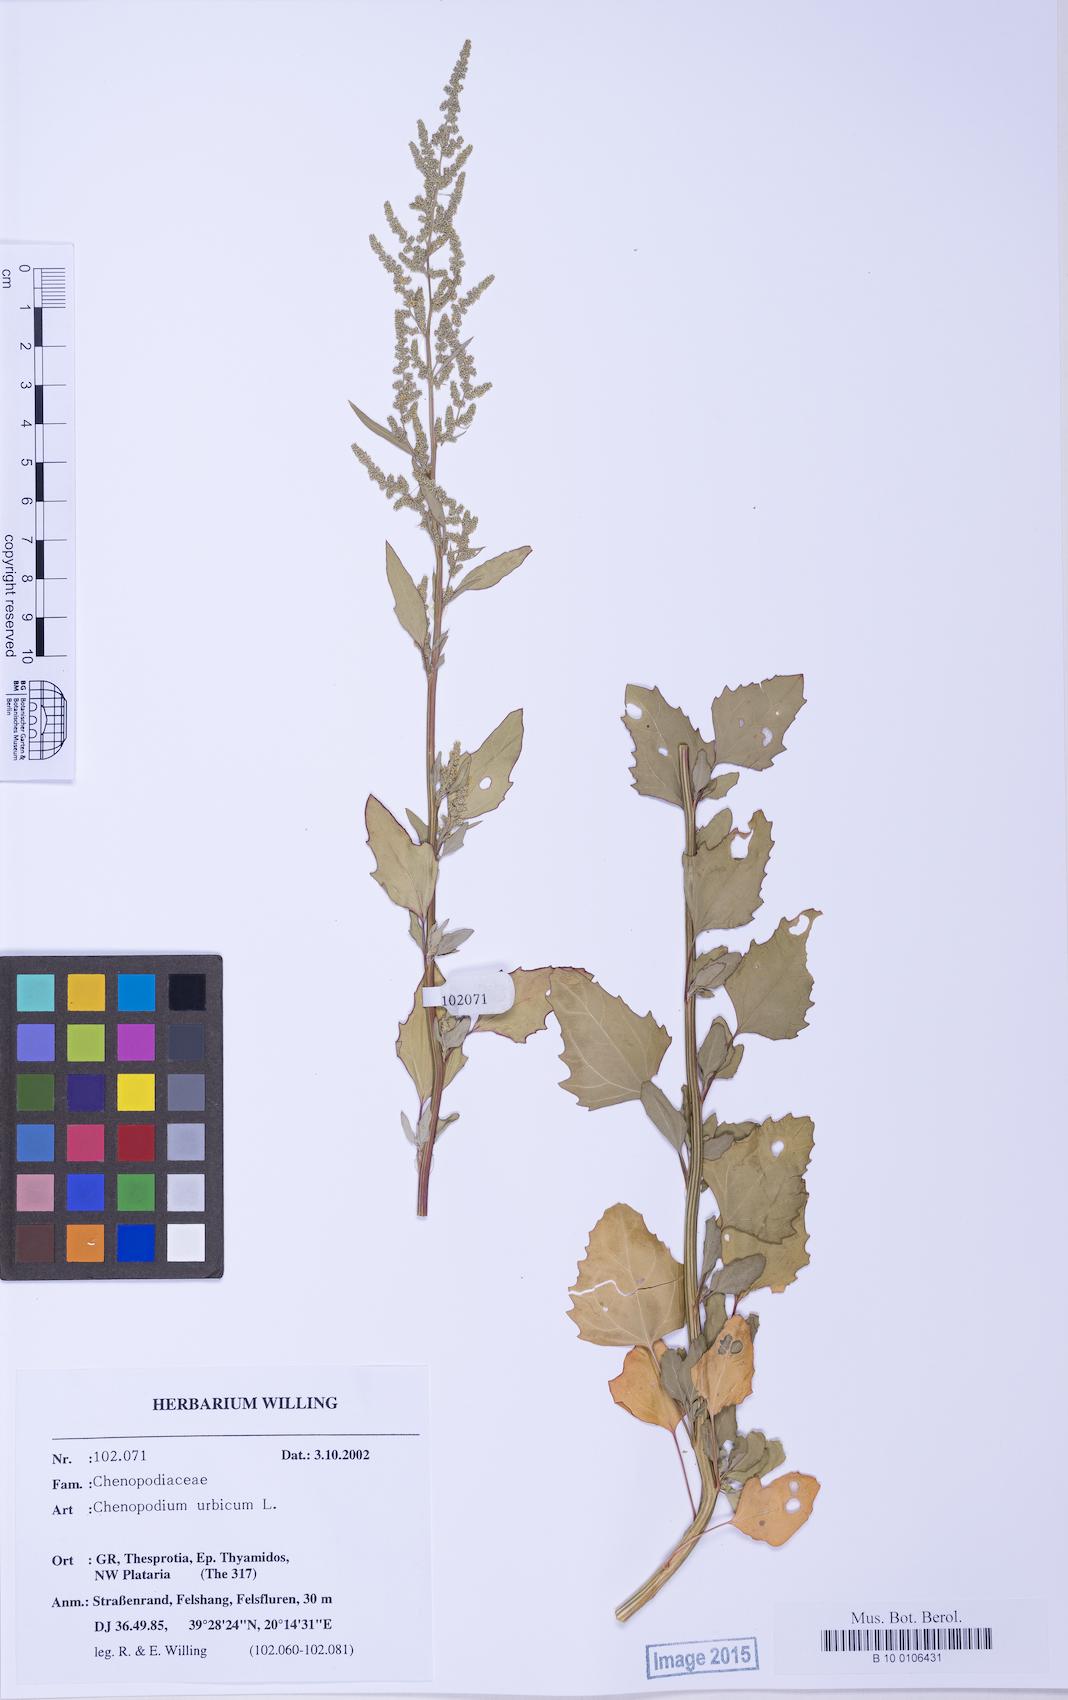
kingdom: Plantae
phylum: Tracheophyta
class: Magnoliopsida
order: Caryophyllales
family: Amaranthaceae
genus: Chenopodium
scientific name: Chenopodium betaceum
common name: Striped goosefoot
